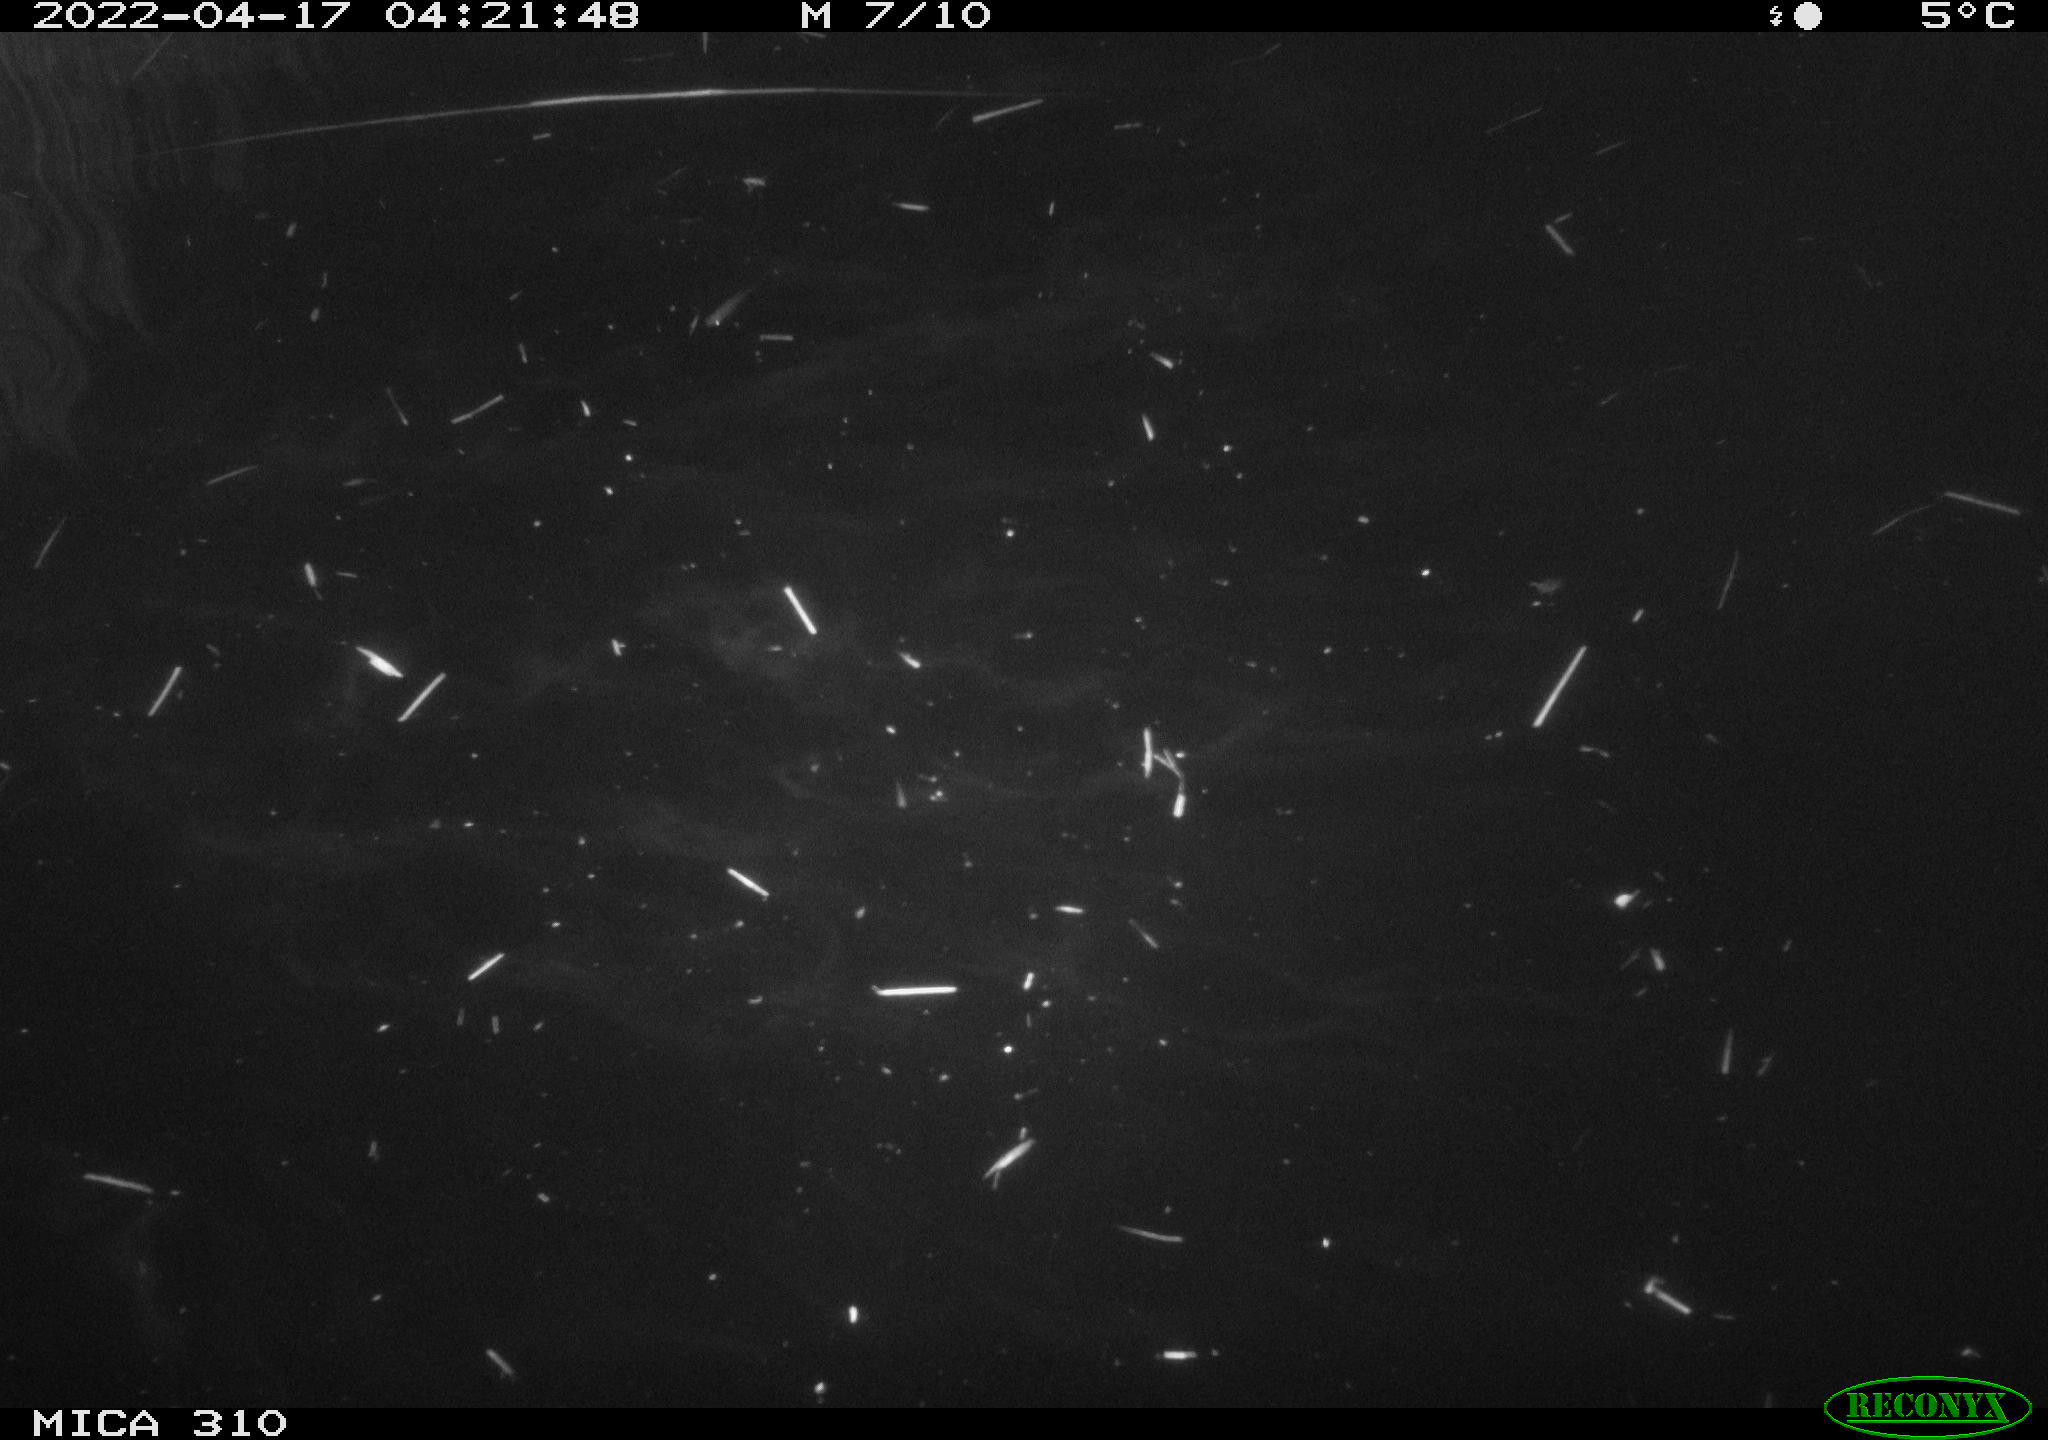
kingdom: Animalia
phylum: Chordata
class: Aves
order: Anseriformes
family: Anatidae
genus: Anas
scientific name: Anas platyrhynchos
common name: Mallard
